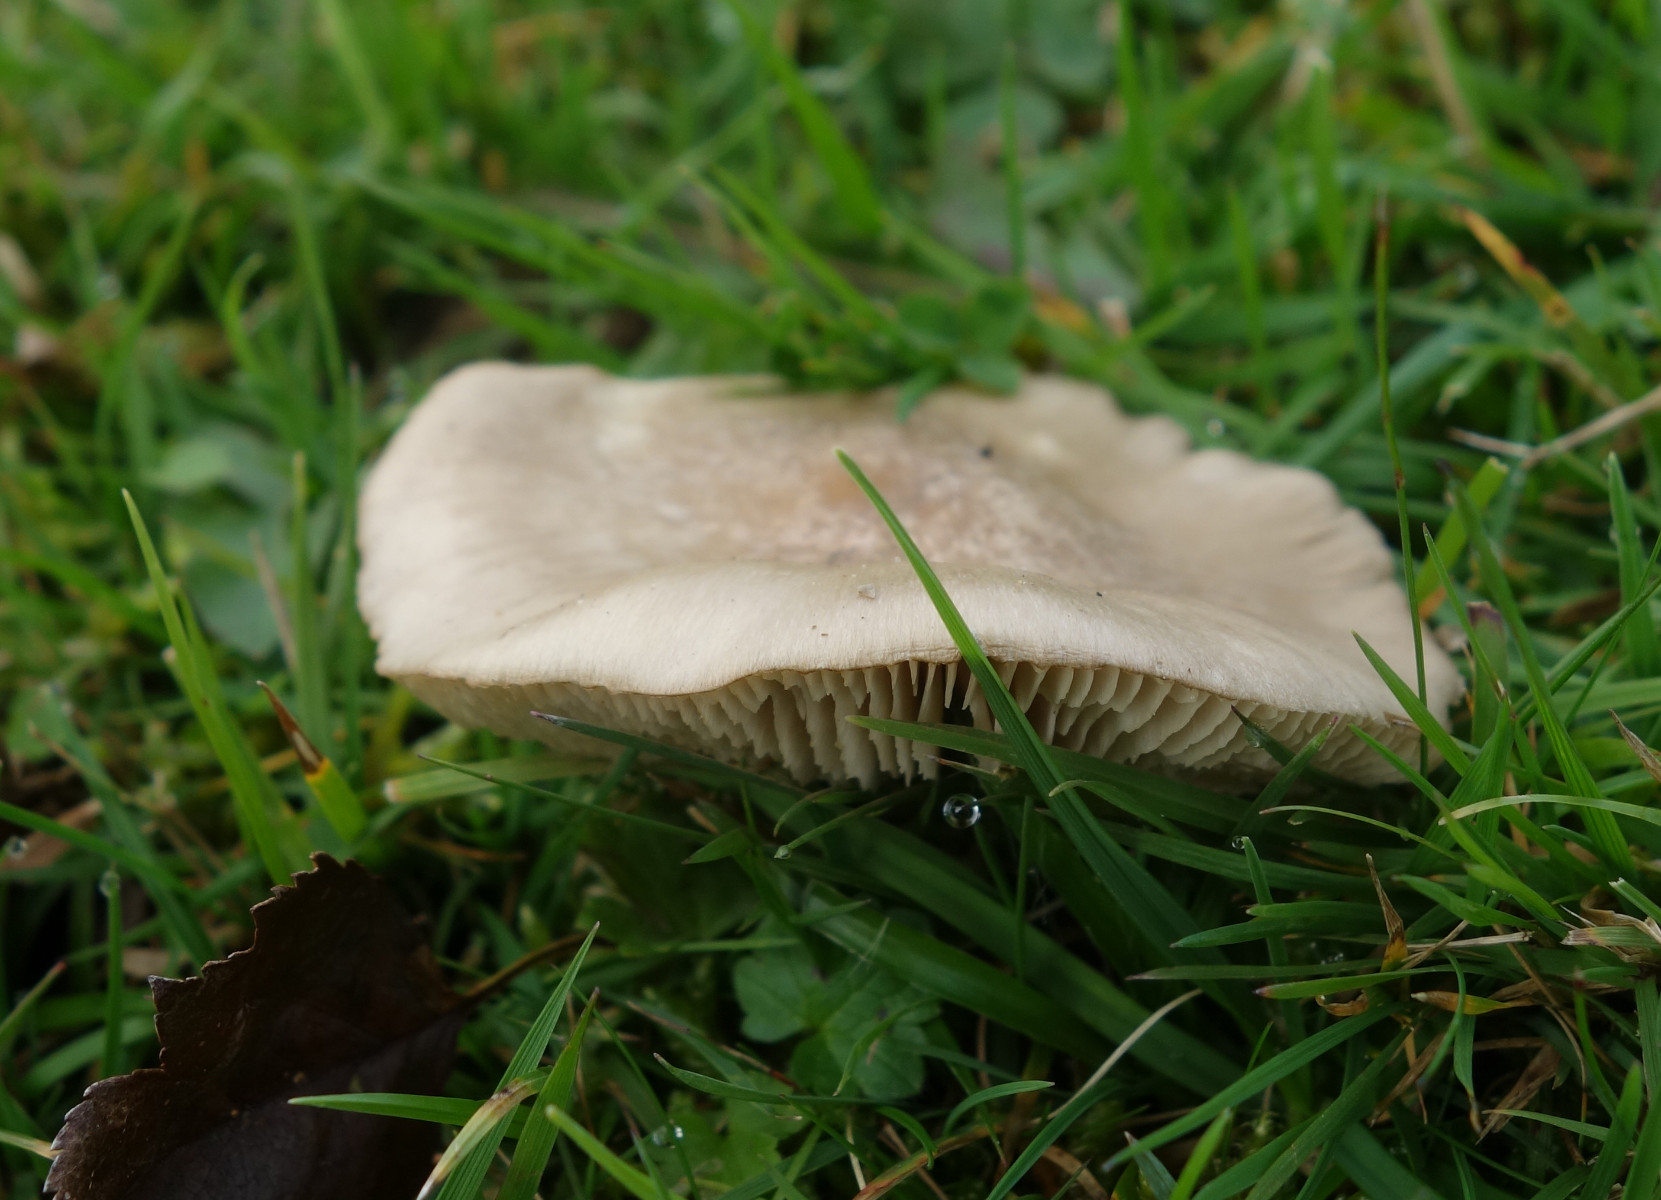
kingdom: Fungi
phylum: Basidiomycota
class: Agaricomycetes
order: Agaricales
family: Entolomataceae
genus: Entoloma
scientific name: Entoloma prunuloides
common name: mel-rødblad
